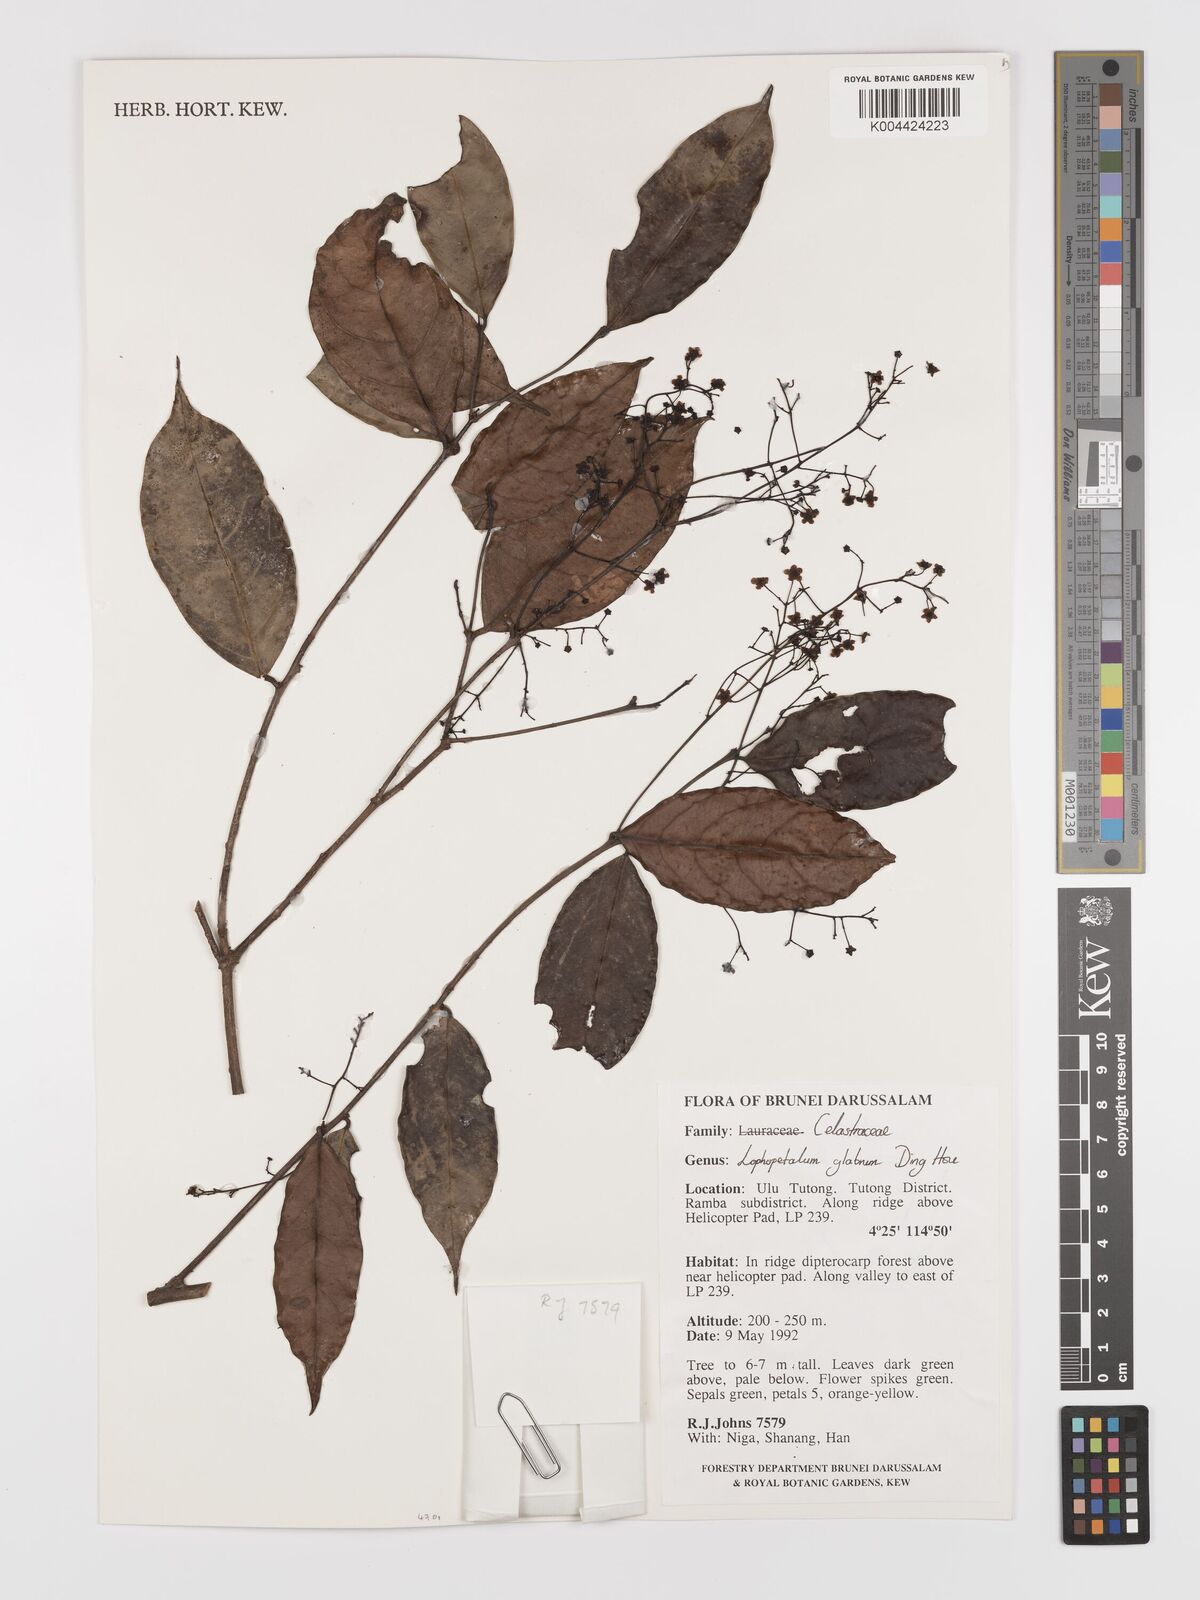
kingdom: Plantae
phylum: Tracheophyta
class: Magnoliopsida
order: Celastrales
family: Celastraceae
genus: Lophopetalum
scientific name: Lophopetalum glabrum
